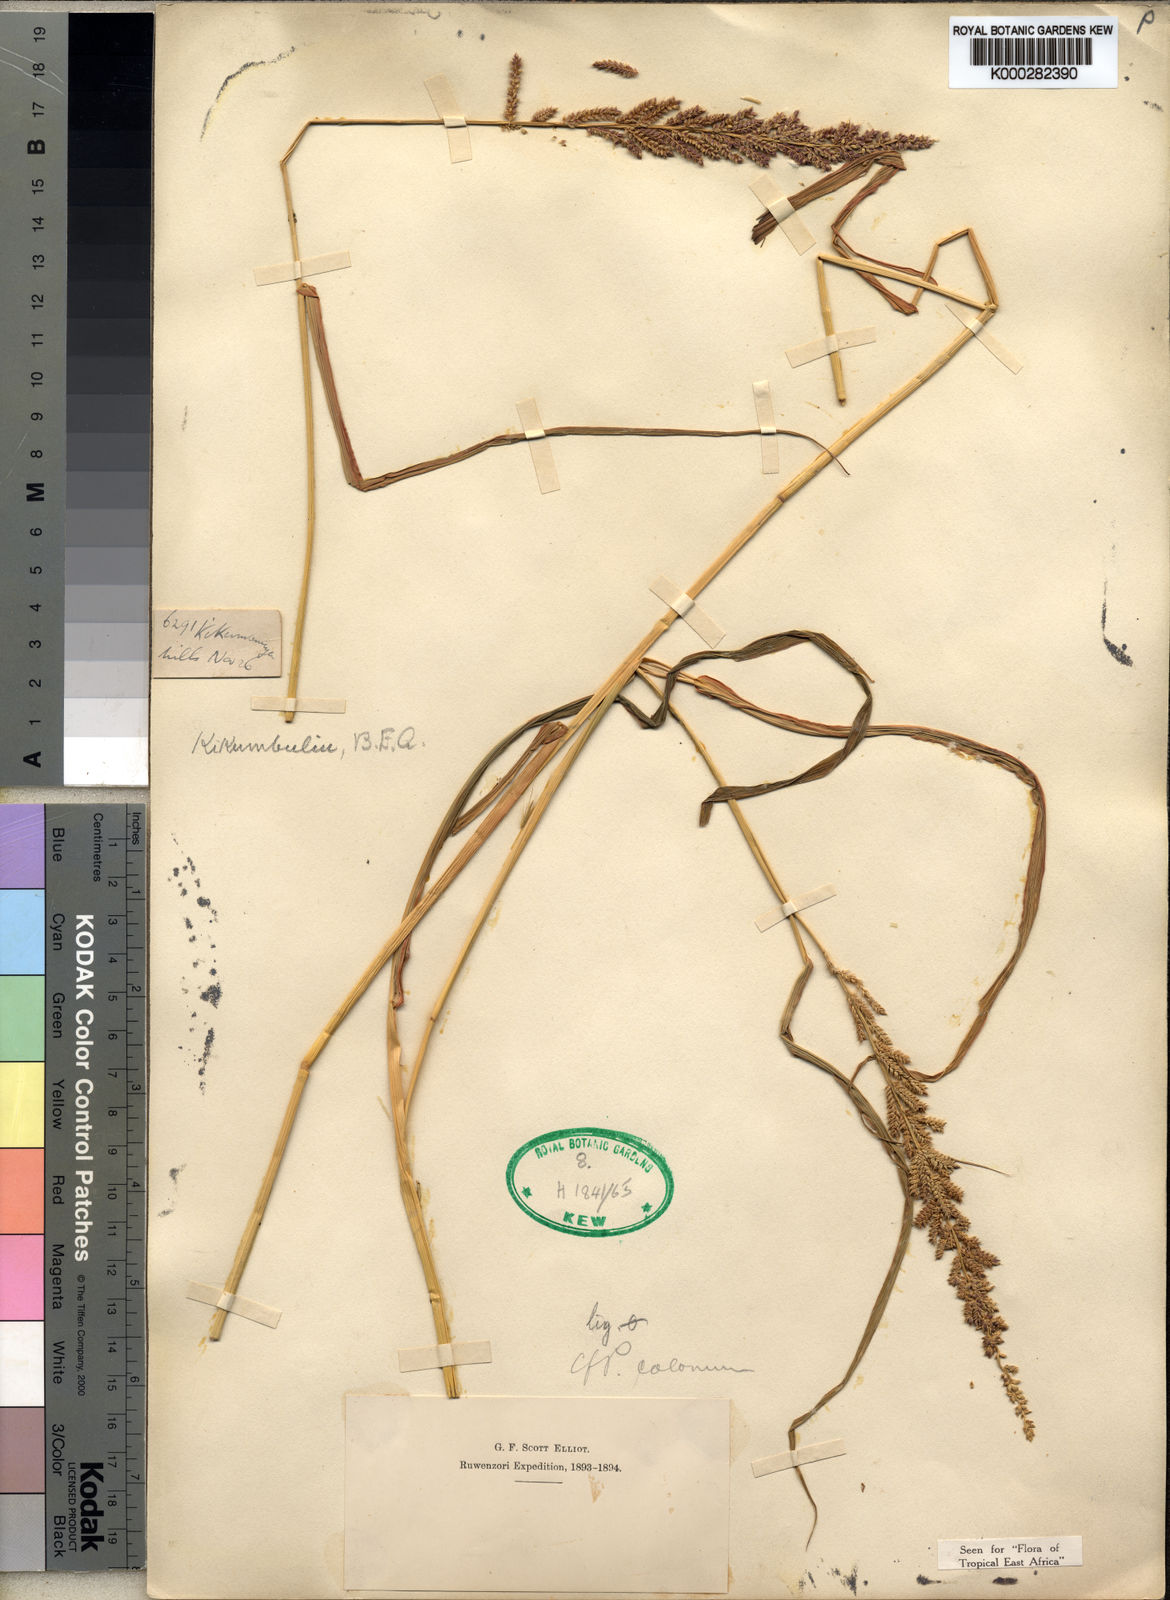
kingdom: Plantae
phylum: Tracheophyta
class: Liliopsida
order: Poales
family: Poaceae
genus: Echinochloa
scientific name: Echinochloa haploclada
